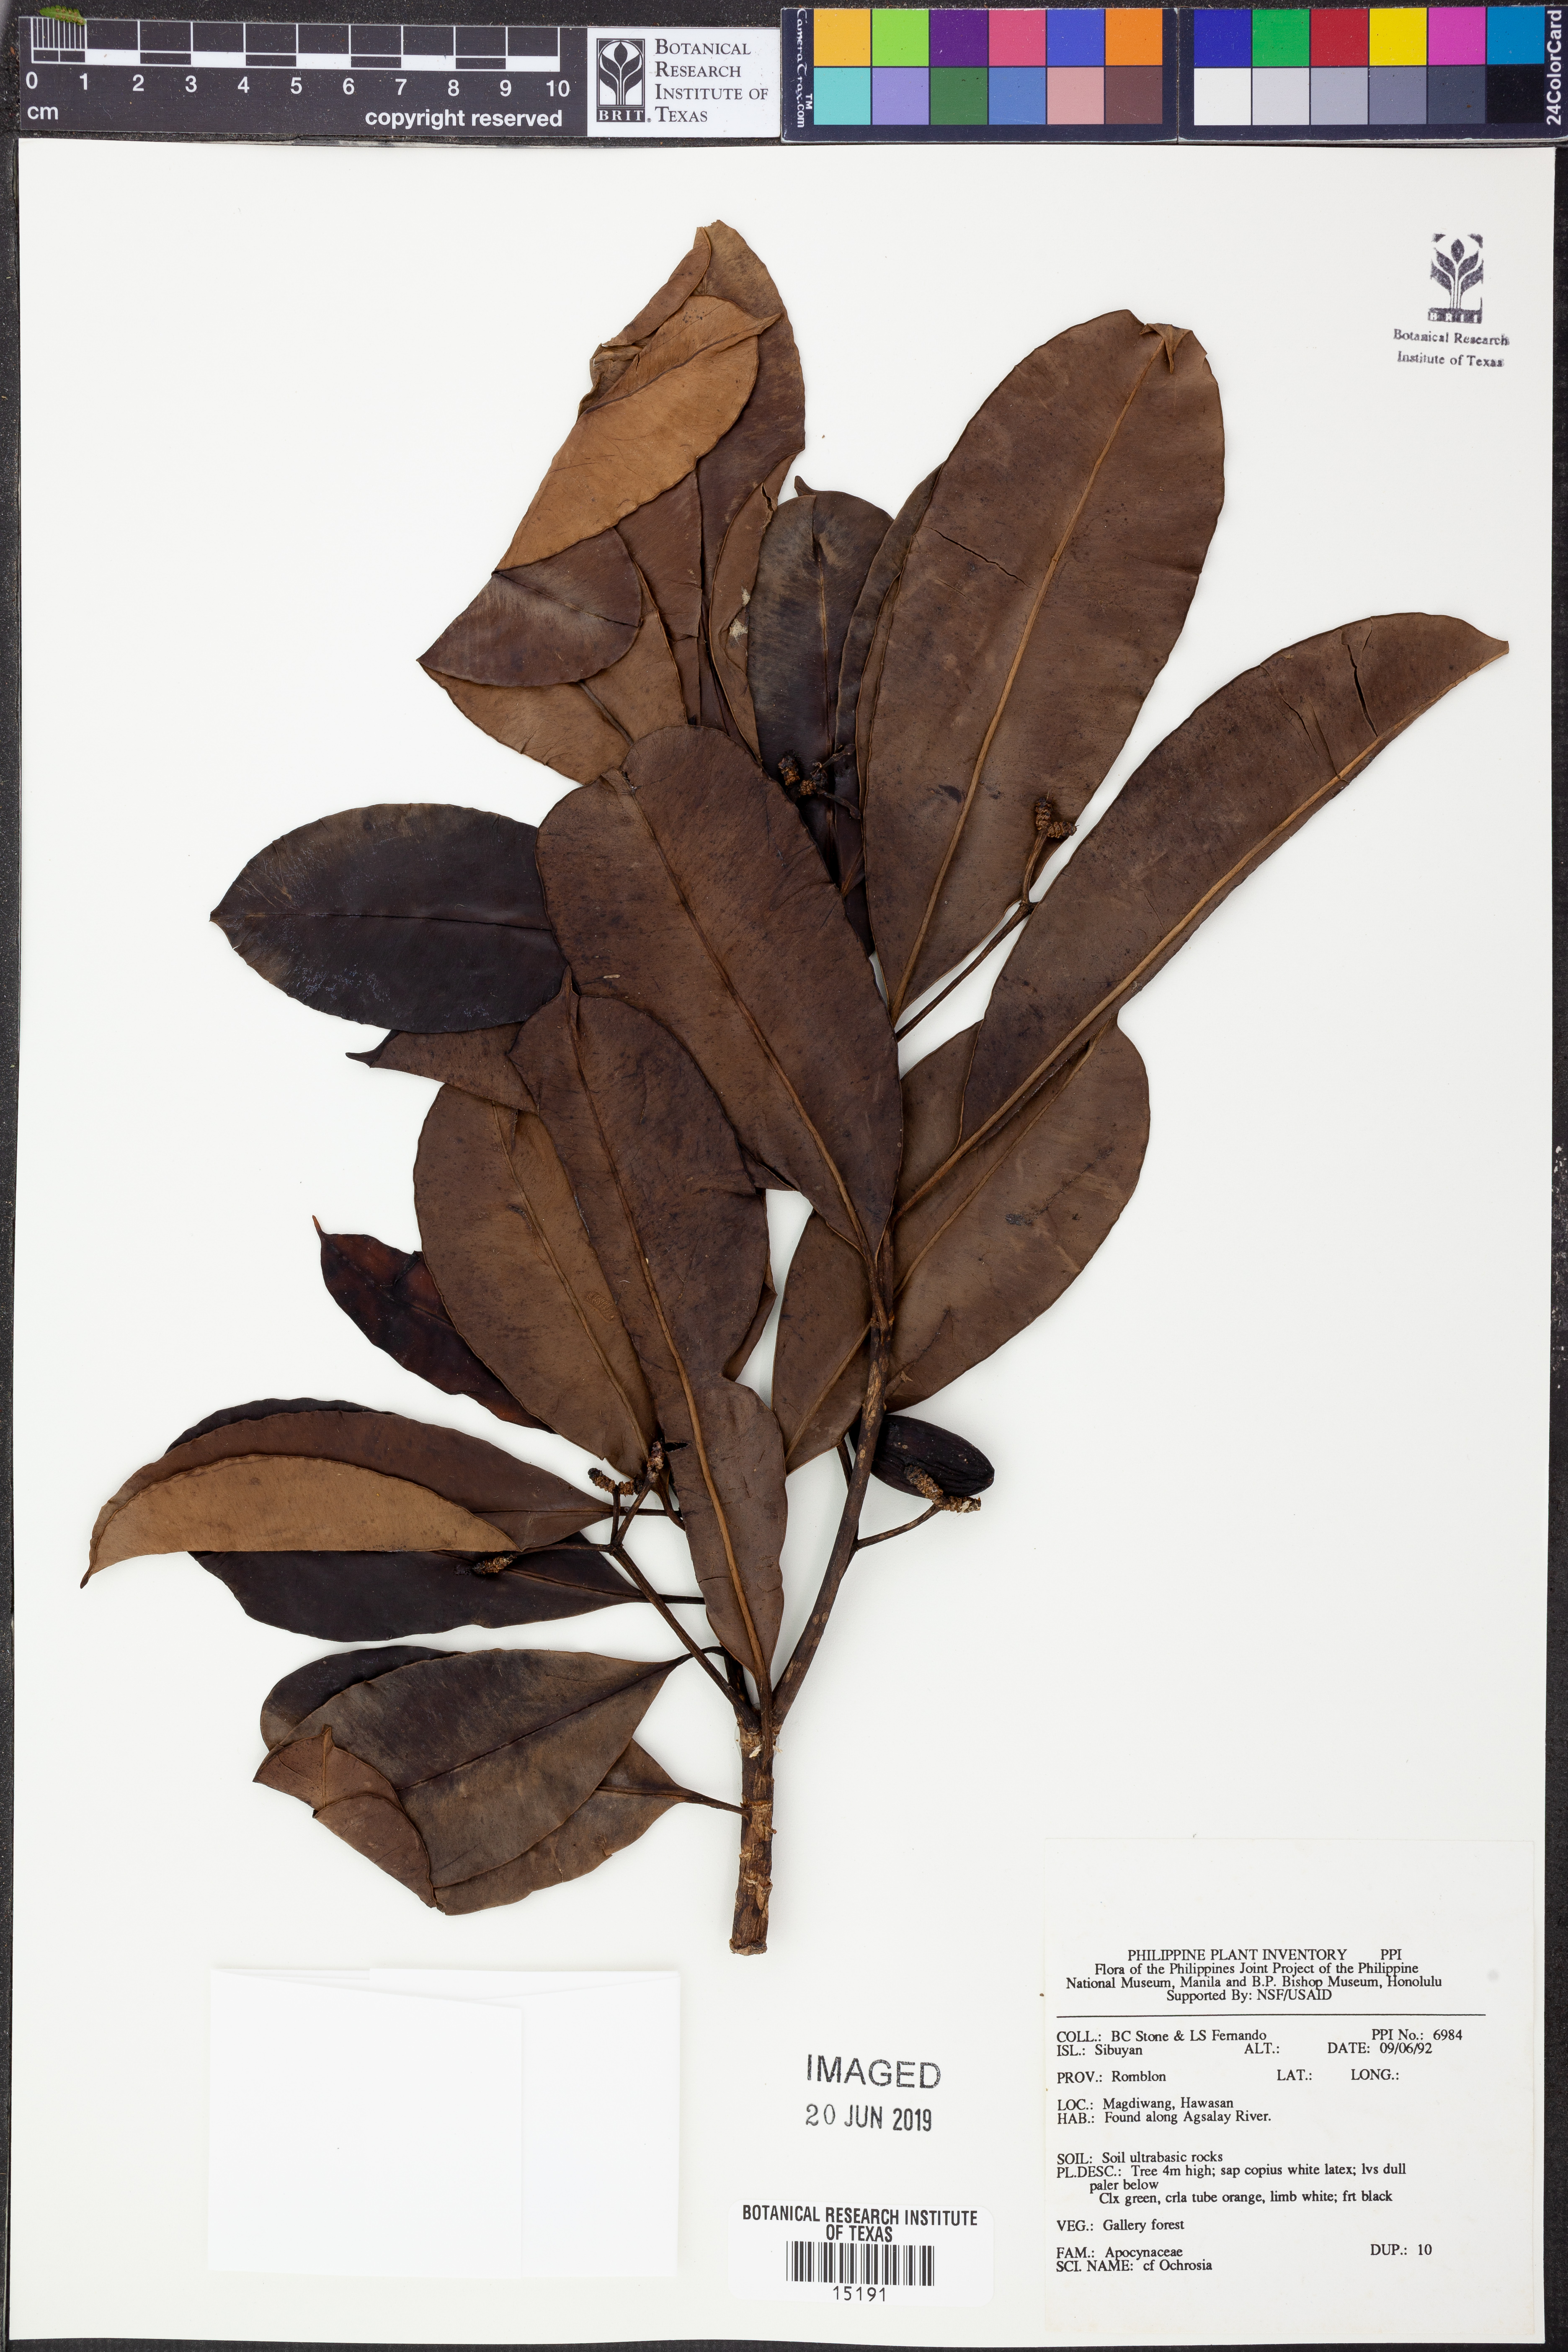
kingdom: Plantae
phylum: Tracheophyta
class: Magnoliopsida
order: Gentianales
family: Apocynaceae
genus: Ochrosia
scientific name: Ochrosia
